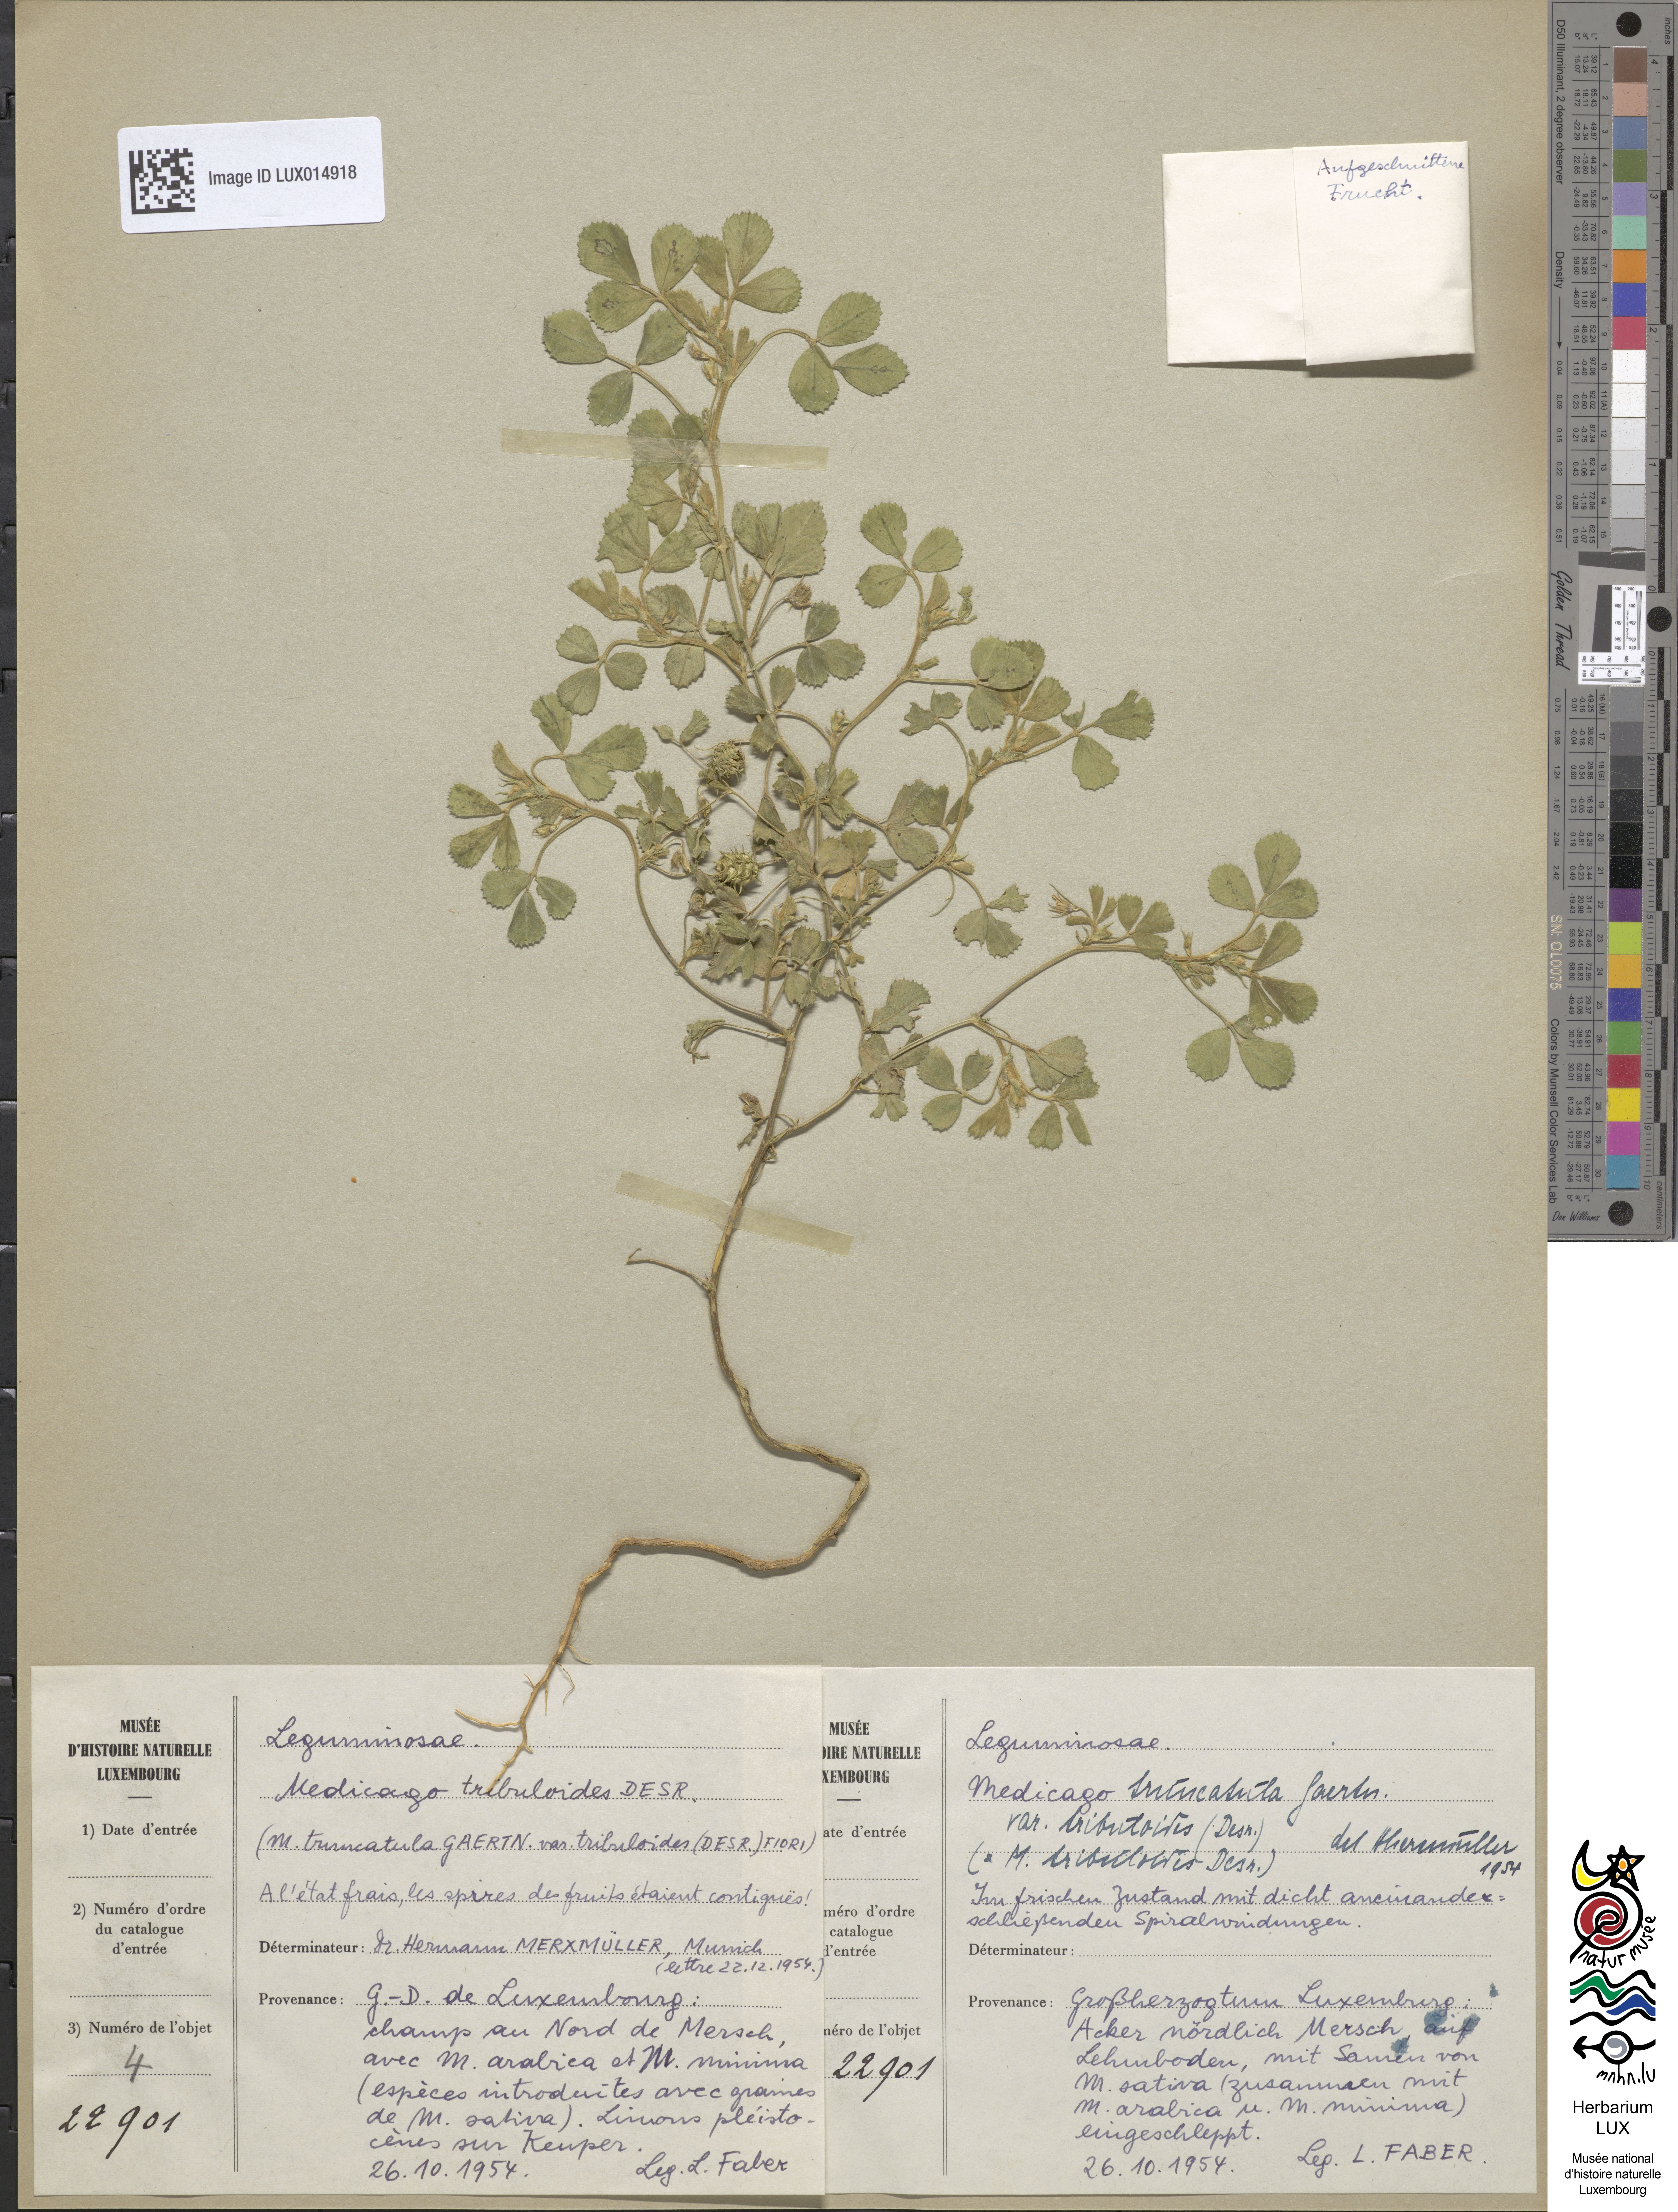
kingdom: Plantae
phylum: Tracheophyta
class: Magnoliopsida
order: Fabales
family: Fabaceae
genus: Medicago
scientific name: Medicago truncatula
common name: Strong-spined medick
